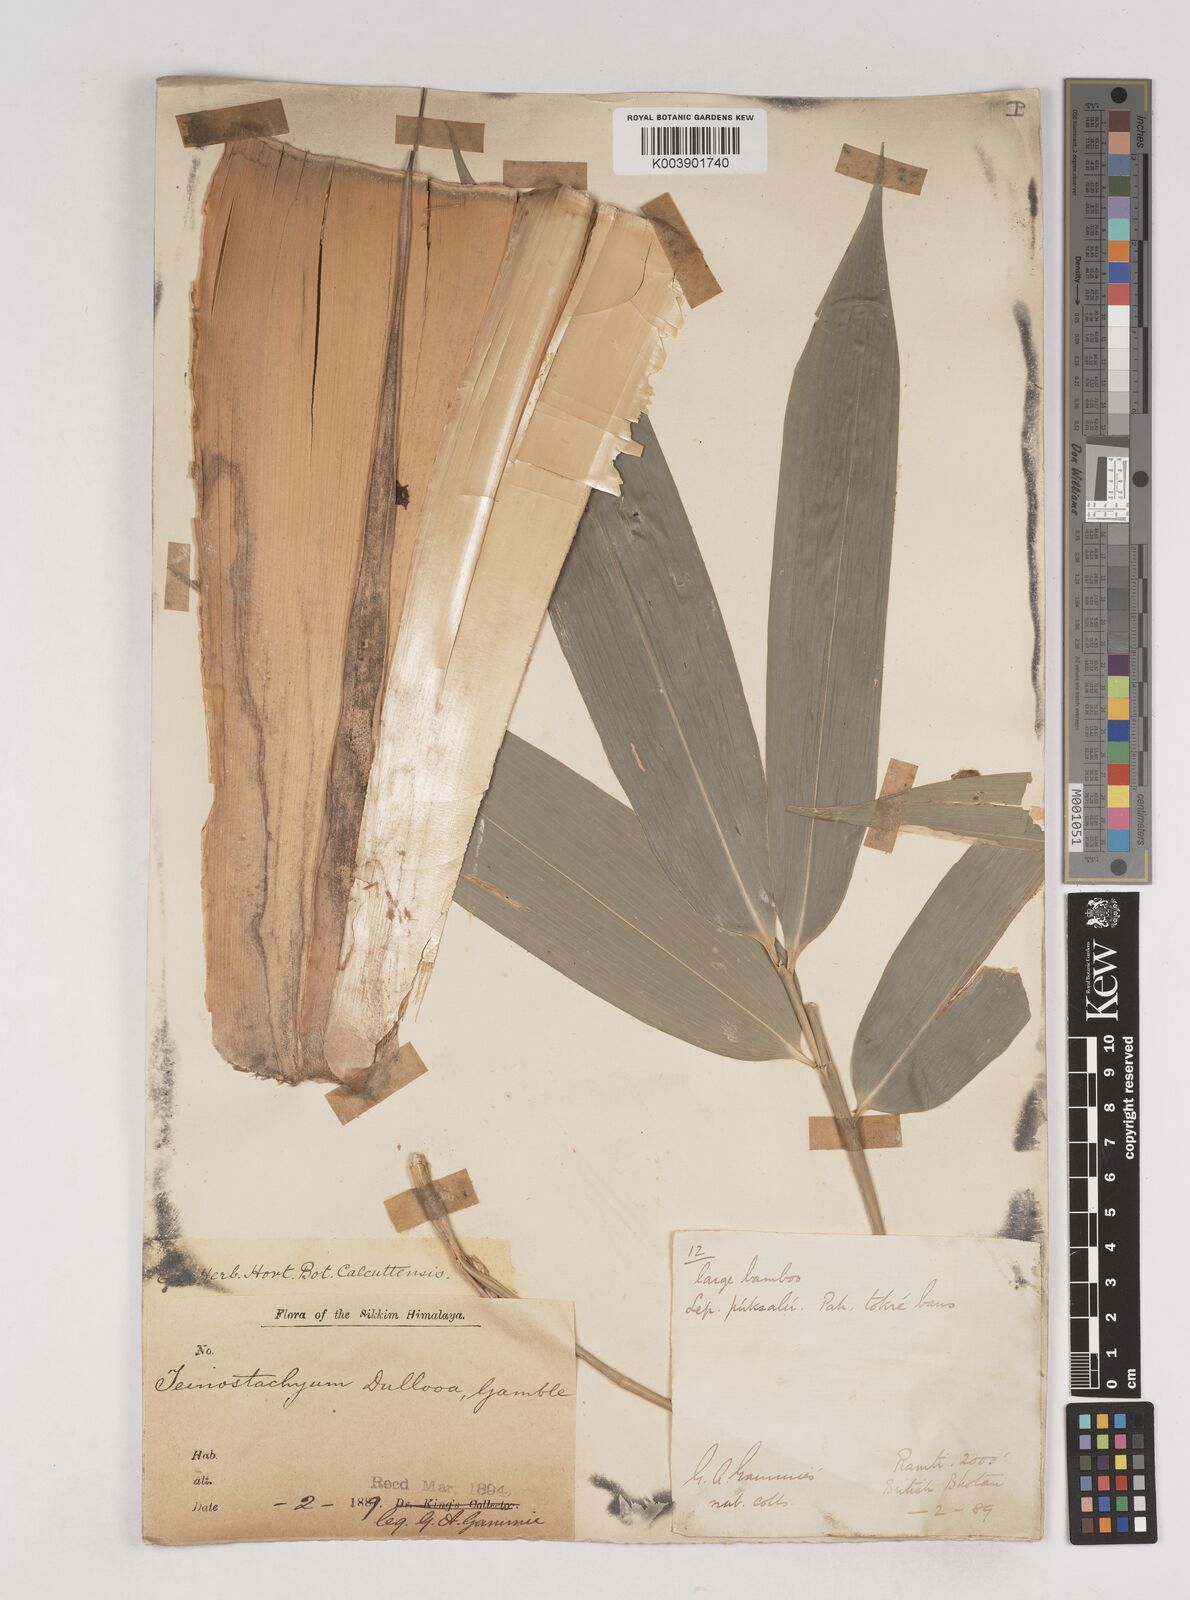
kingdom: Plantae
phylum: Tracheophyta
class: Liliopsida
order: Poales
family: Poaceae
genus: Schizostachyum
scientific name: Schizostachyum dullooa
